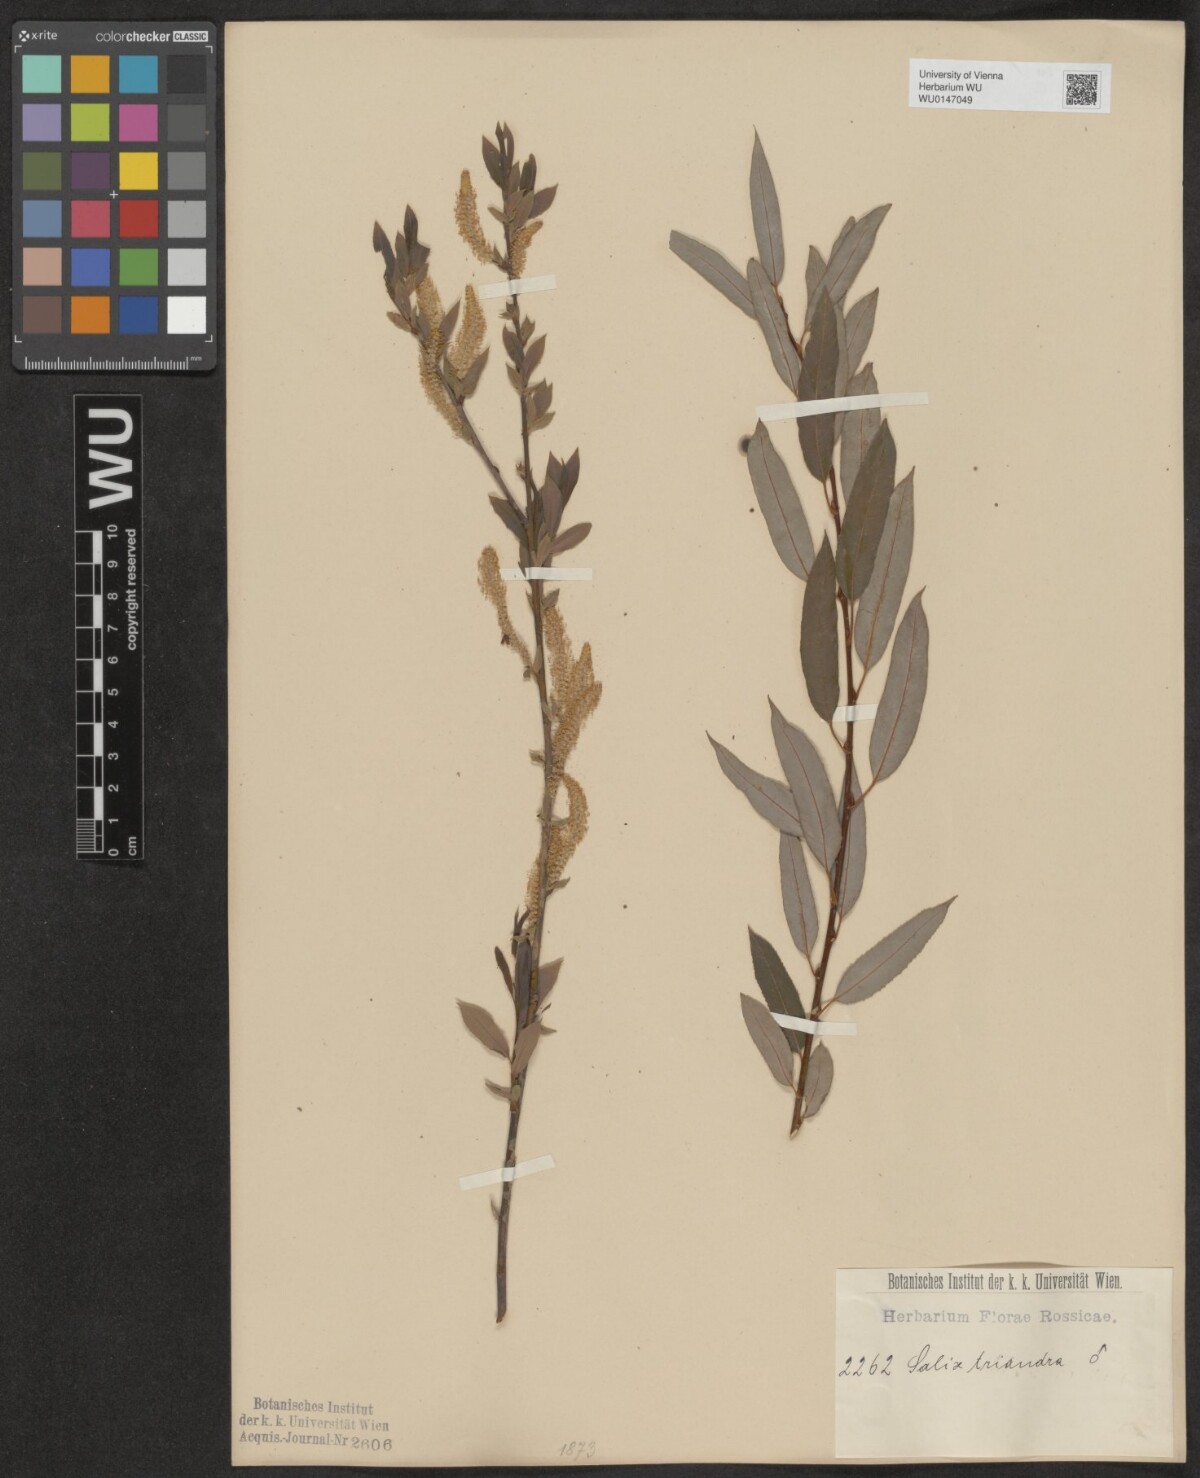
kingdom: Plantae
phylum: Tracheophyta
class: Magnoliopsida
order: Malpighiales
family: Salicaceae
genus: Salix
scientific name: Salix triandra
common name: Almond willow
